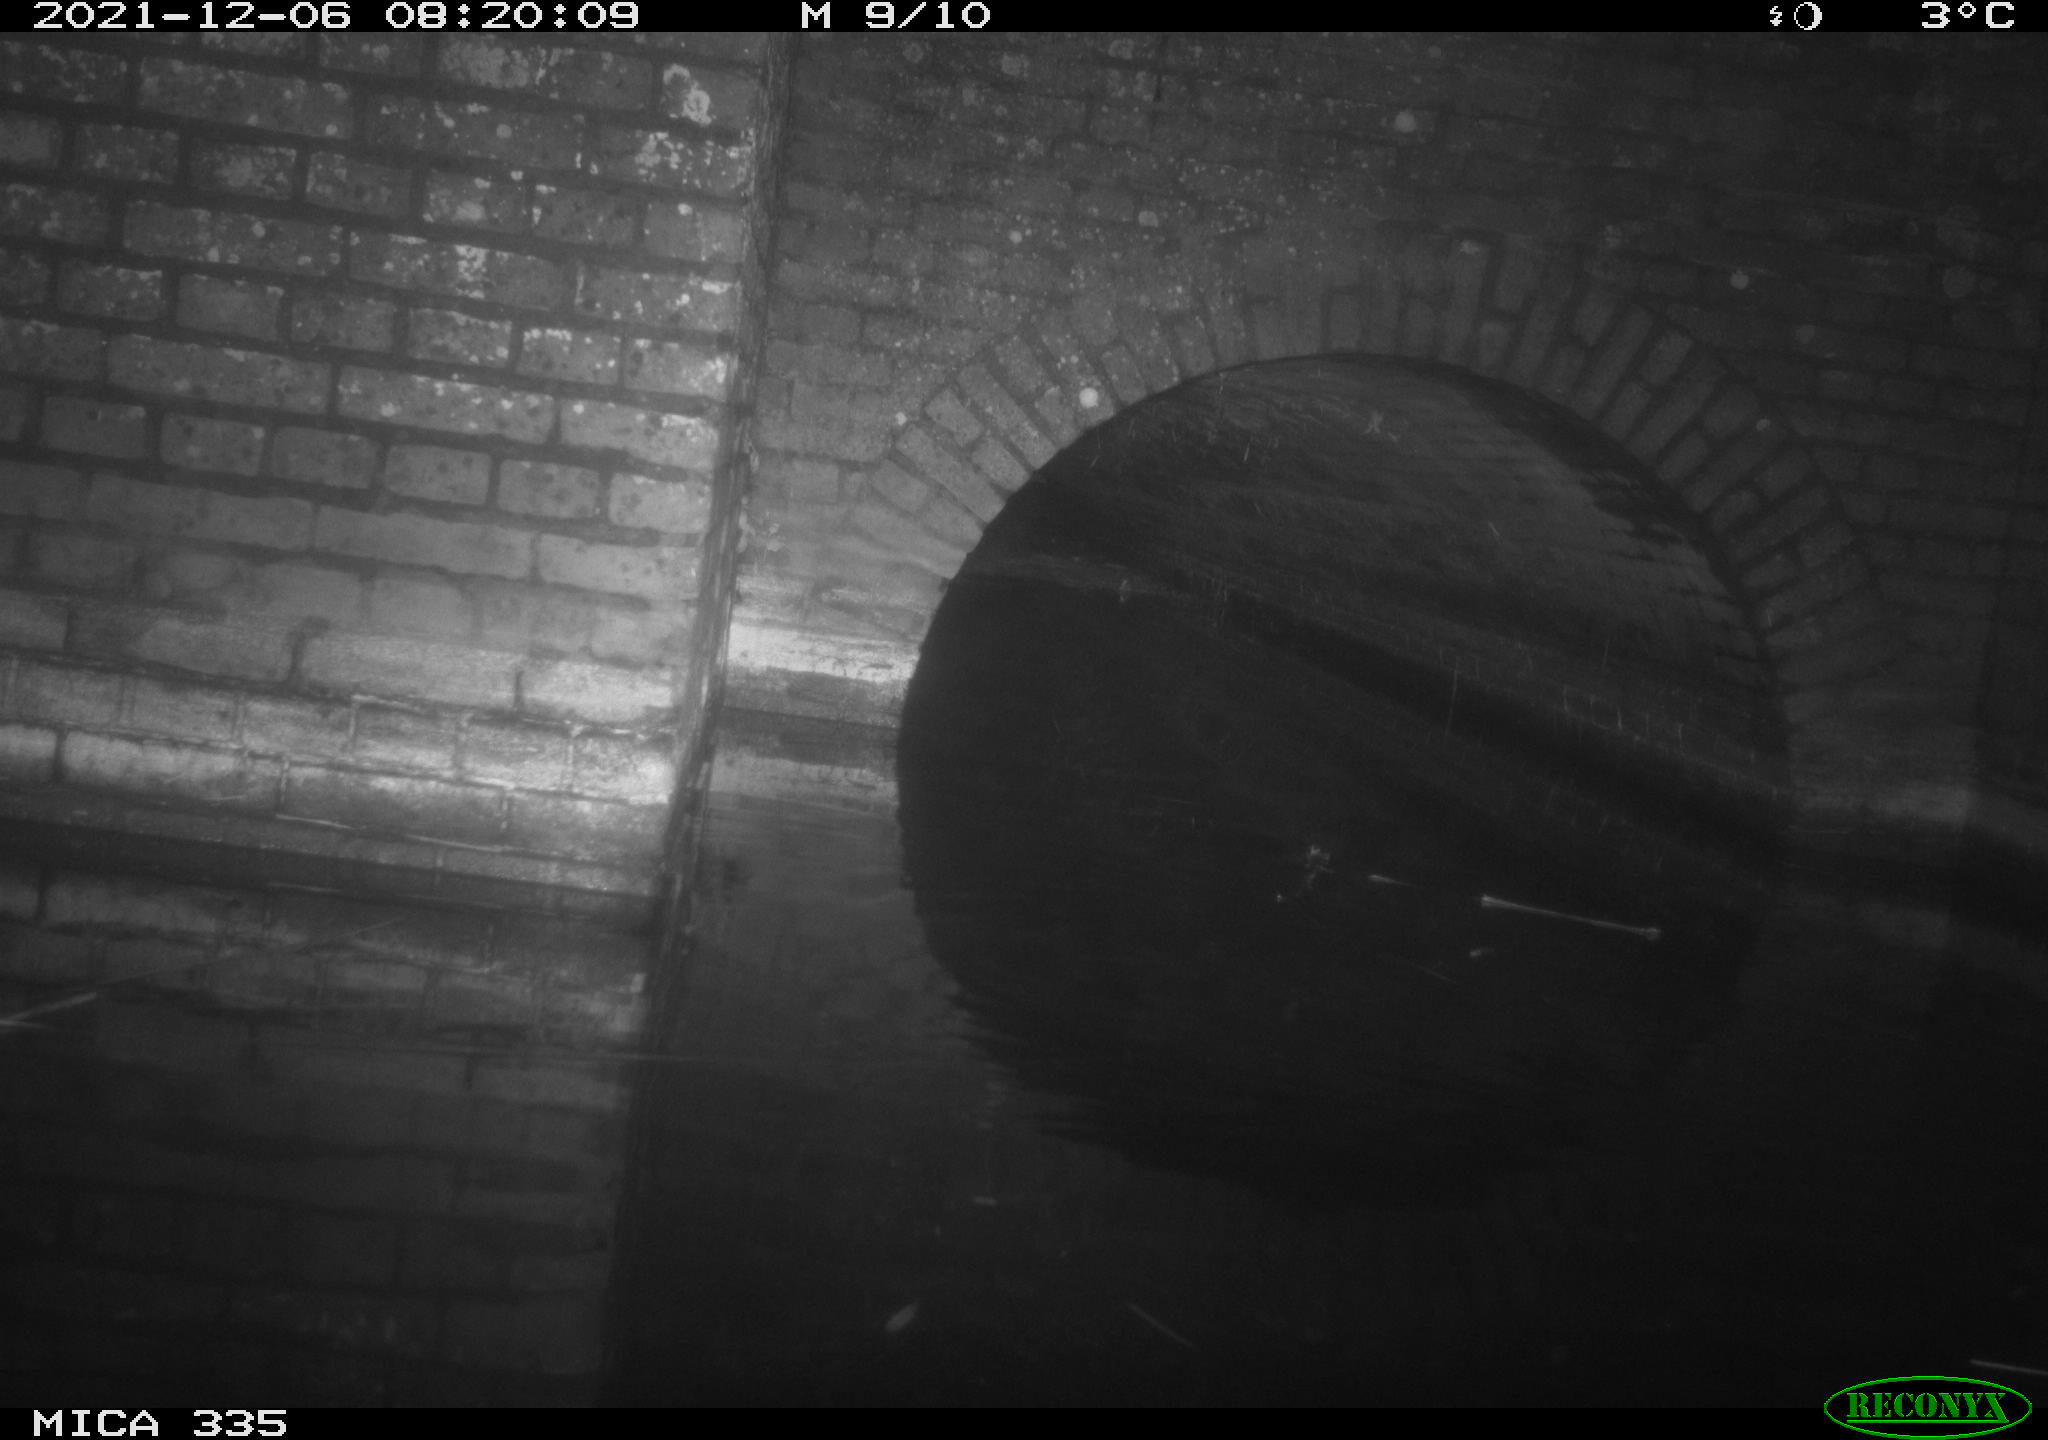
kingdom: Animalia
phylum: Chordata
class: Mammalia
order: Rodentia
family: Muridae
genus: Rattus
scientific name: Rattus norvegicus
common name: Brown rat
